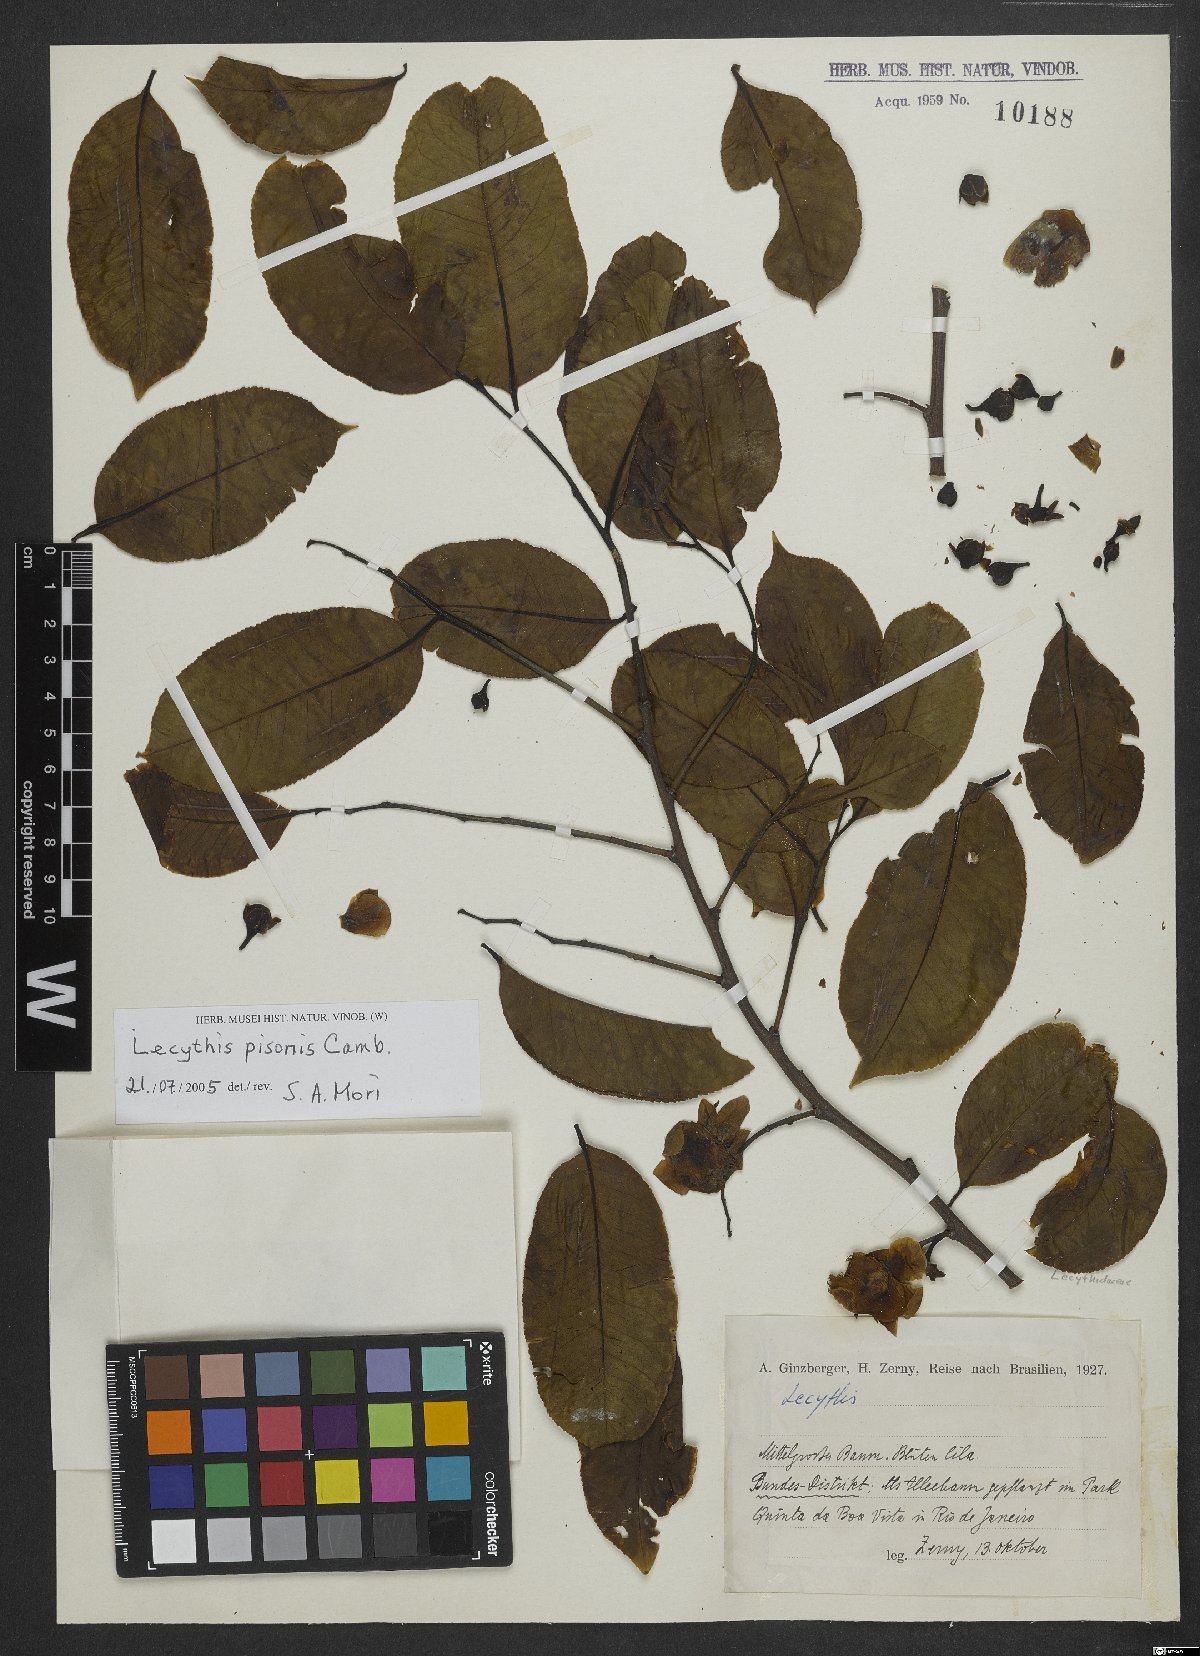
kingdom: Plantae
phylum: Tracheophyta
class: Magnoliopsida
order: Ericales
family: Lecythidaceae
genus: Lecythis
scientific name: Lecythis pisonis
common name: Paradise-nut
